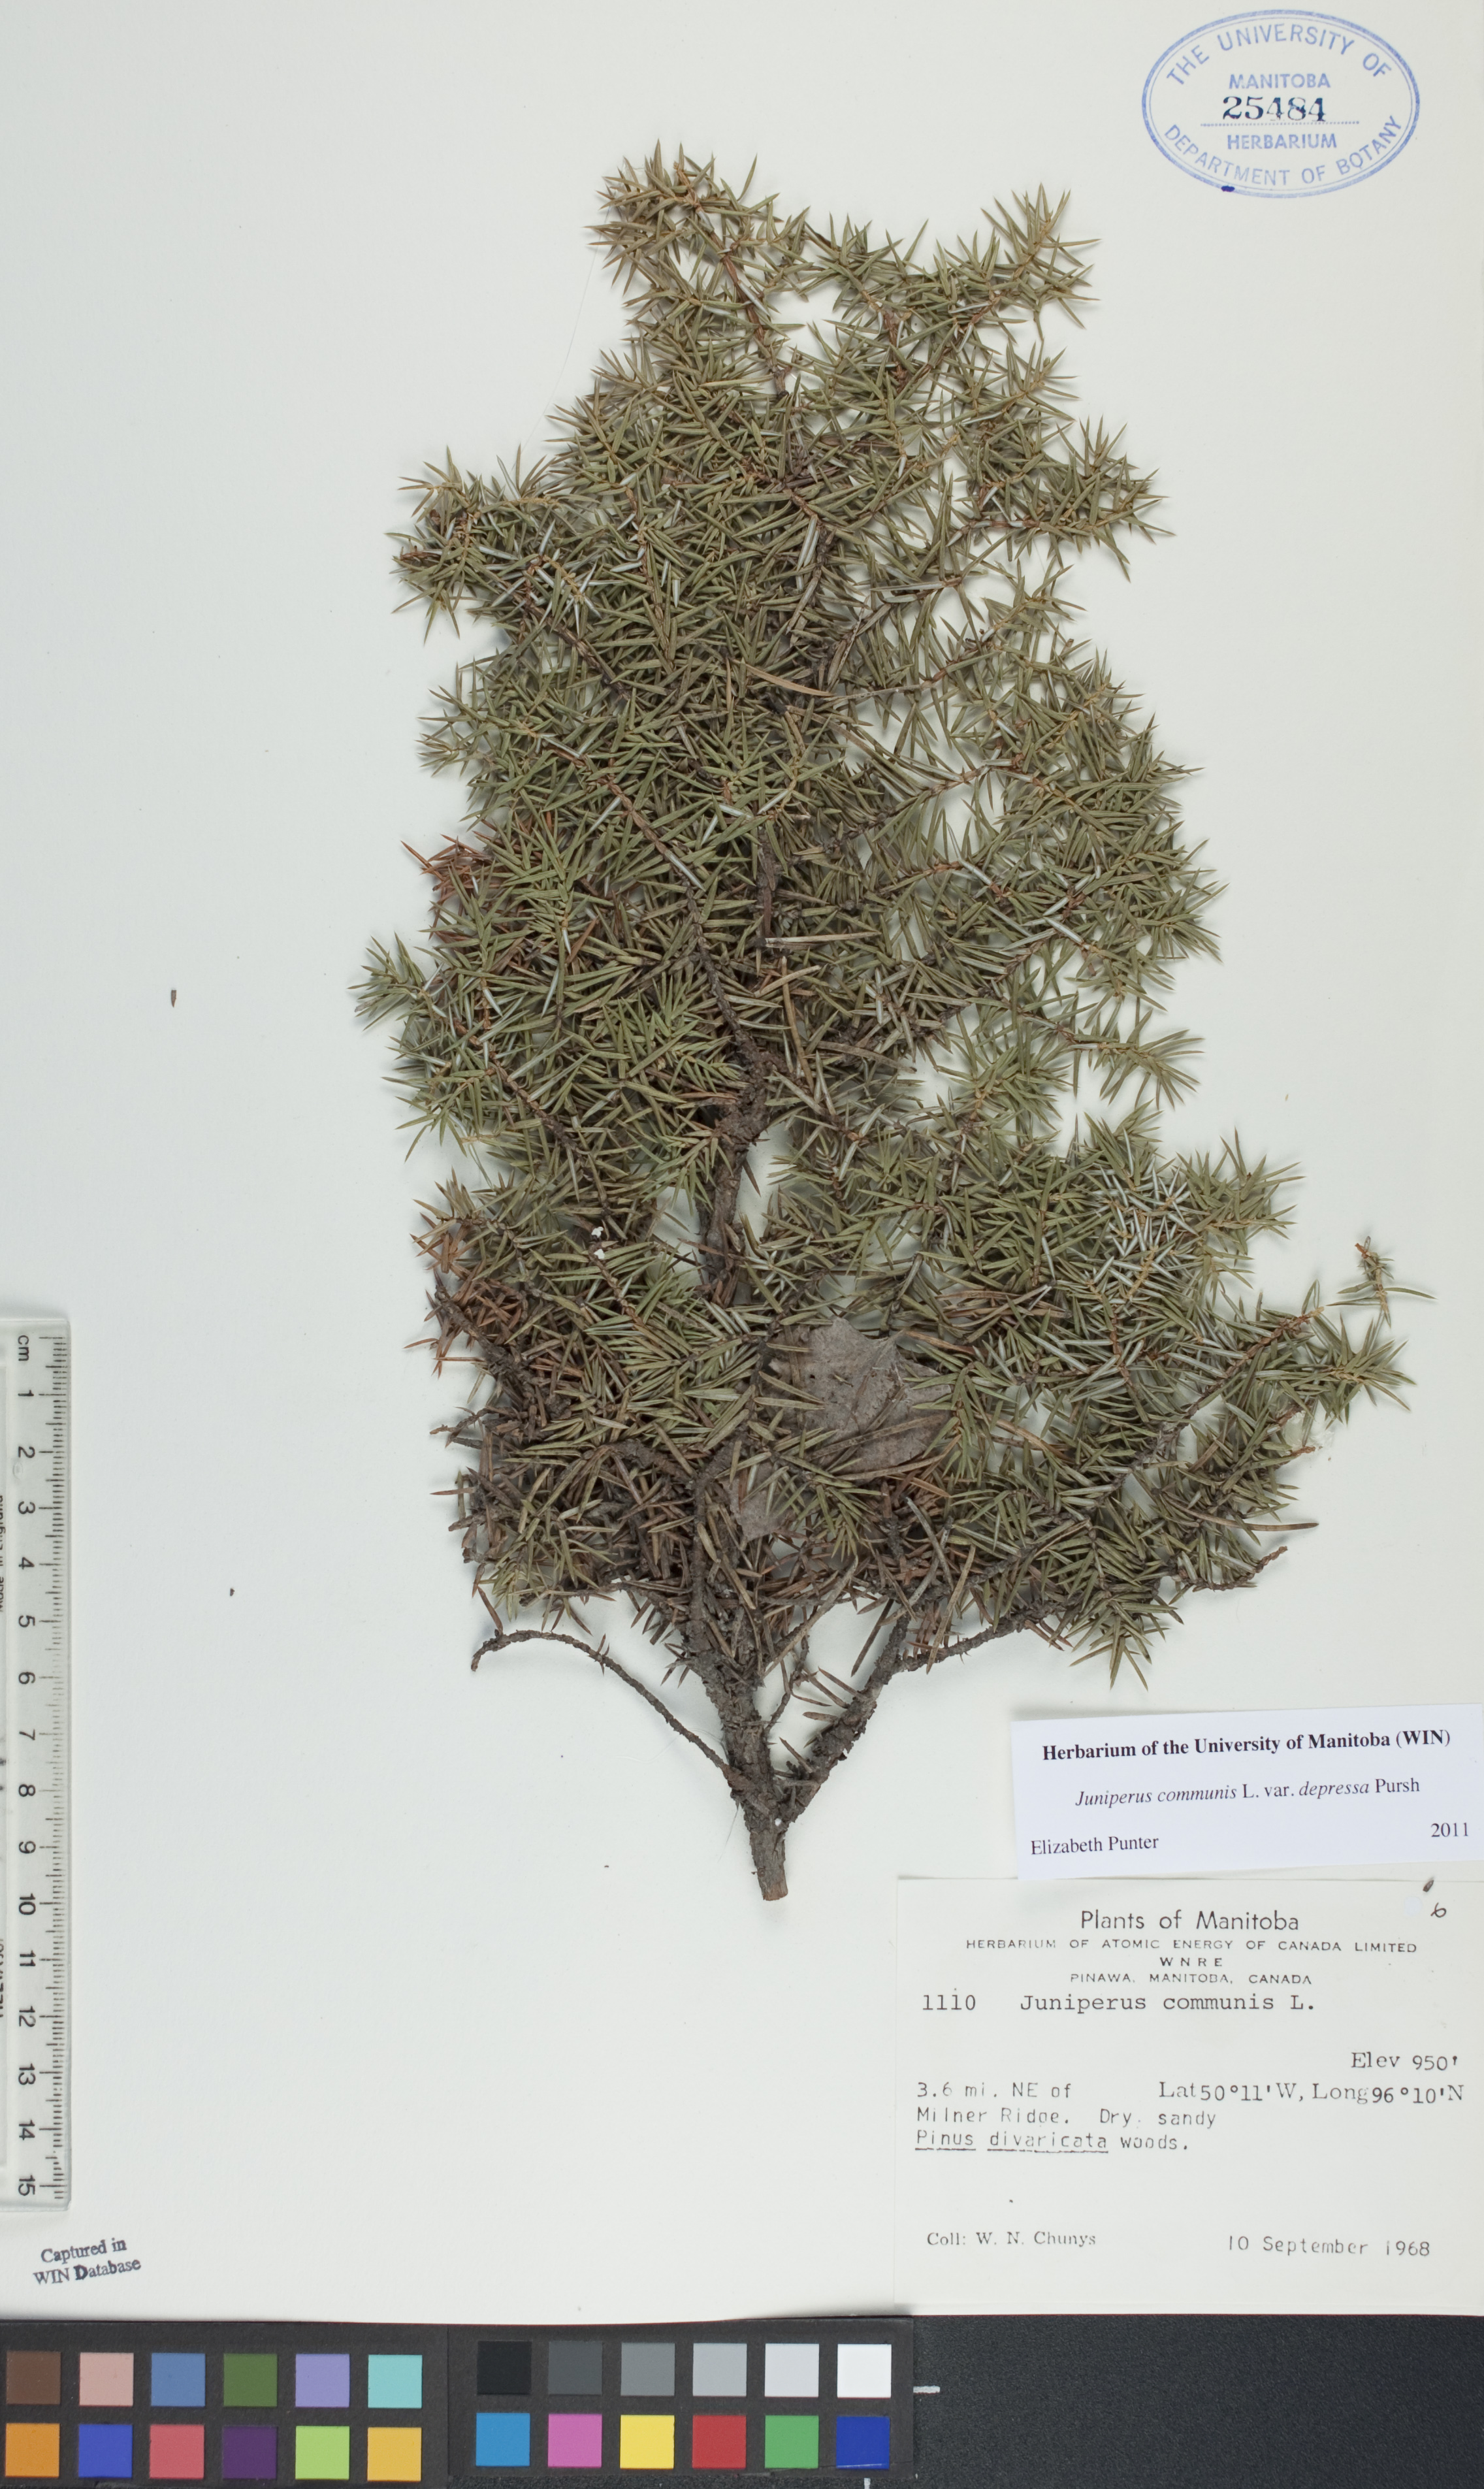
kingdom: Plantae
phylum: Tracheophyta
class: Pinopsida
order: Pinales
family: Cupressaceae
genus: Juniperus
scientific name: Juniperus communis
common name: Common juniper
